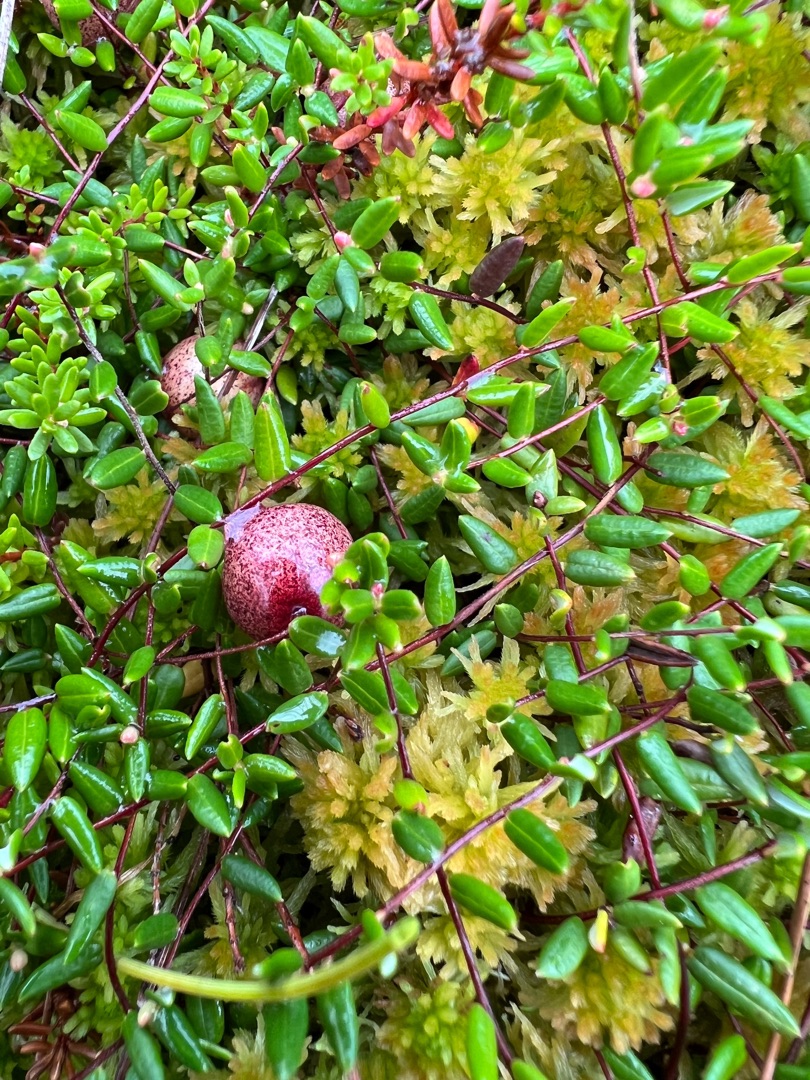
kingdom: Plantae
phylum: Tracheophyta
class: Magnoliopsida
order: Ericales
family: Ericaceae
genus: Vaccinium
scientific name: Vaccinium oxycoccos
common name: Tranebær
